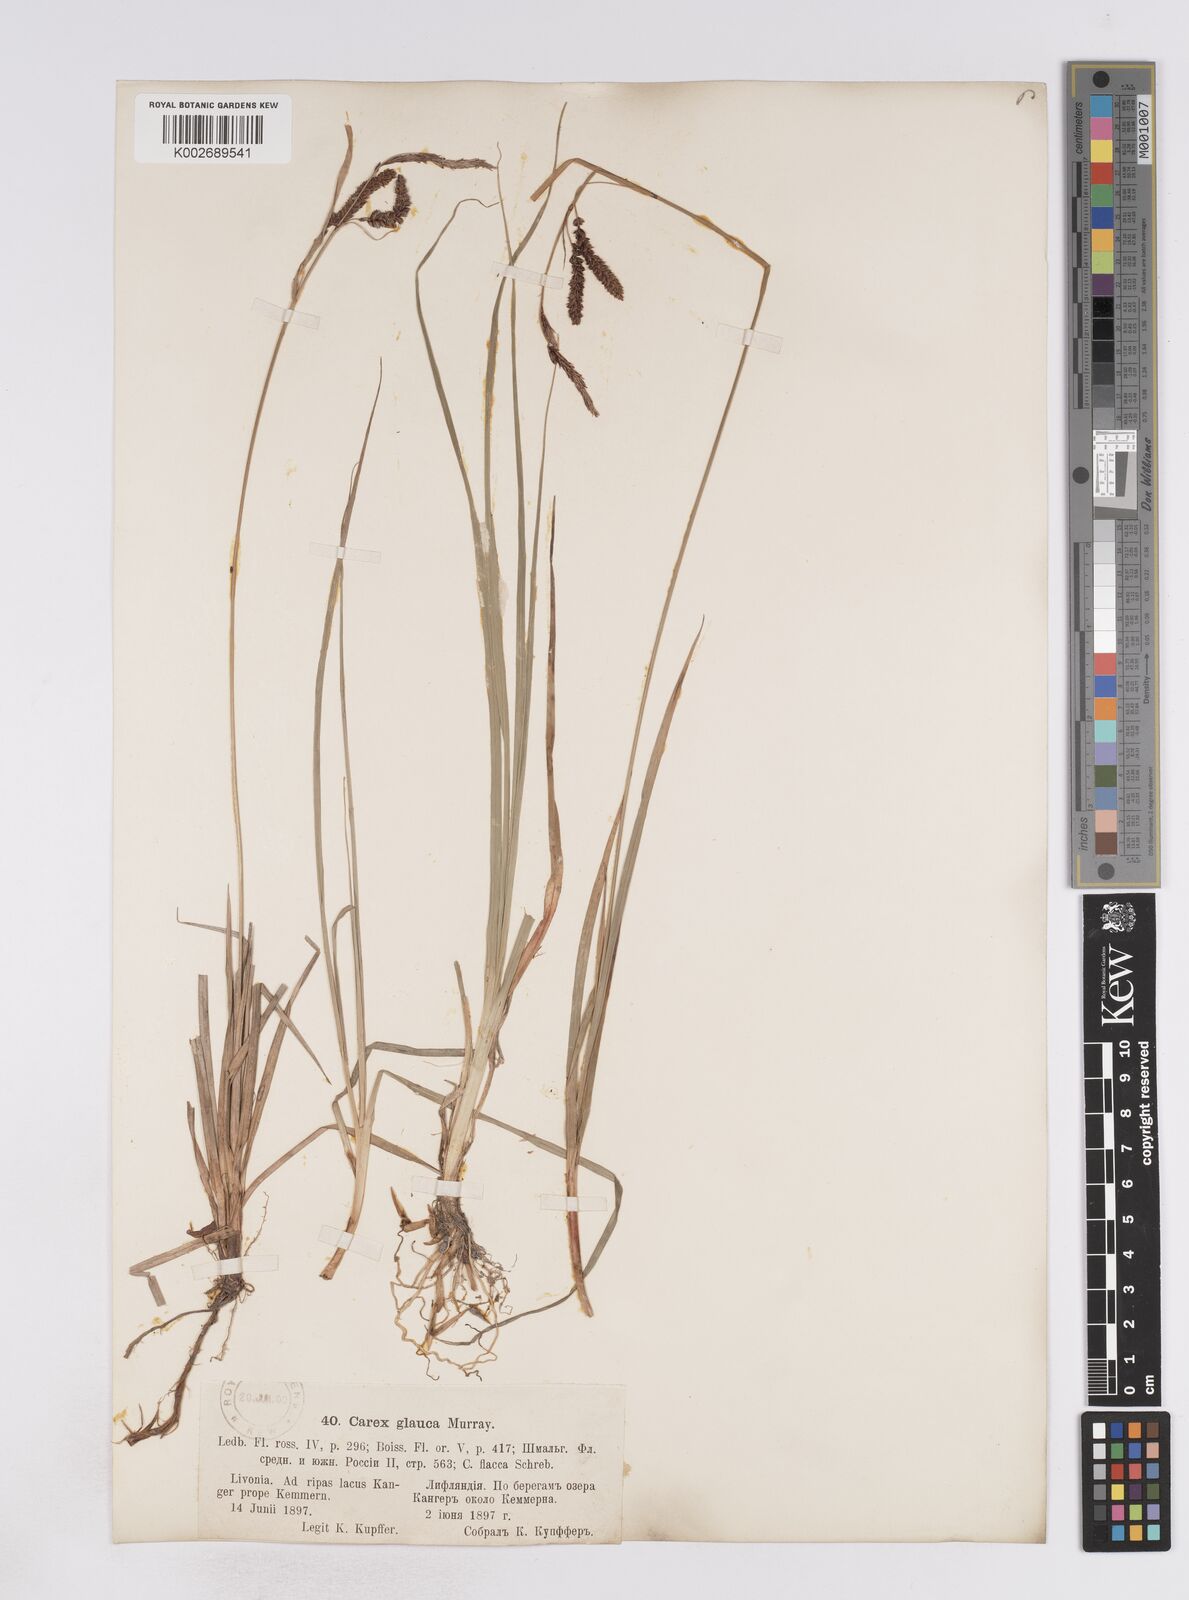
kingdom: Plantae
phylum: Tracheophyta
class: Liliopsida
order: Poales
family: Cyperaceae
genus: Carex
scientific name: Carex flacca
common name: Glaucous sedge
